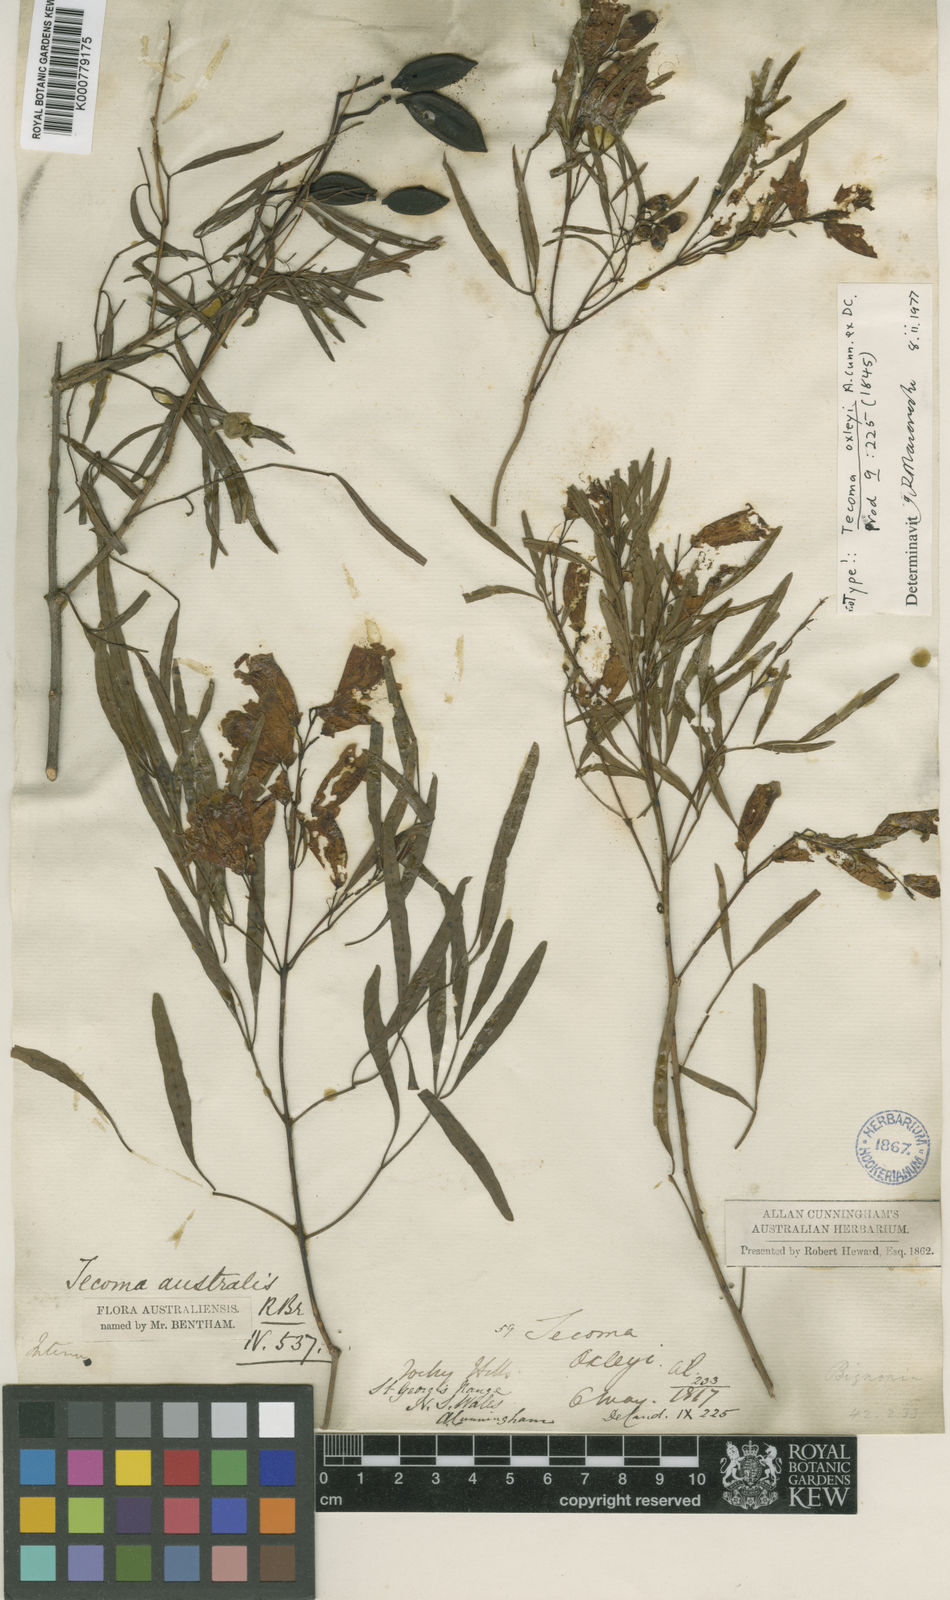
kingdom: Plantae
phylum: Tracheophyta
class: Magnoliopsida
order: Lamiales
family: Bignoniaceae
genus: Pandorea
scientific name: Pandorea pandorana
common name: Wonga-wonga-vine
